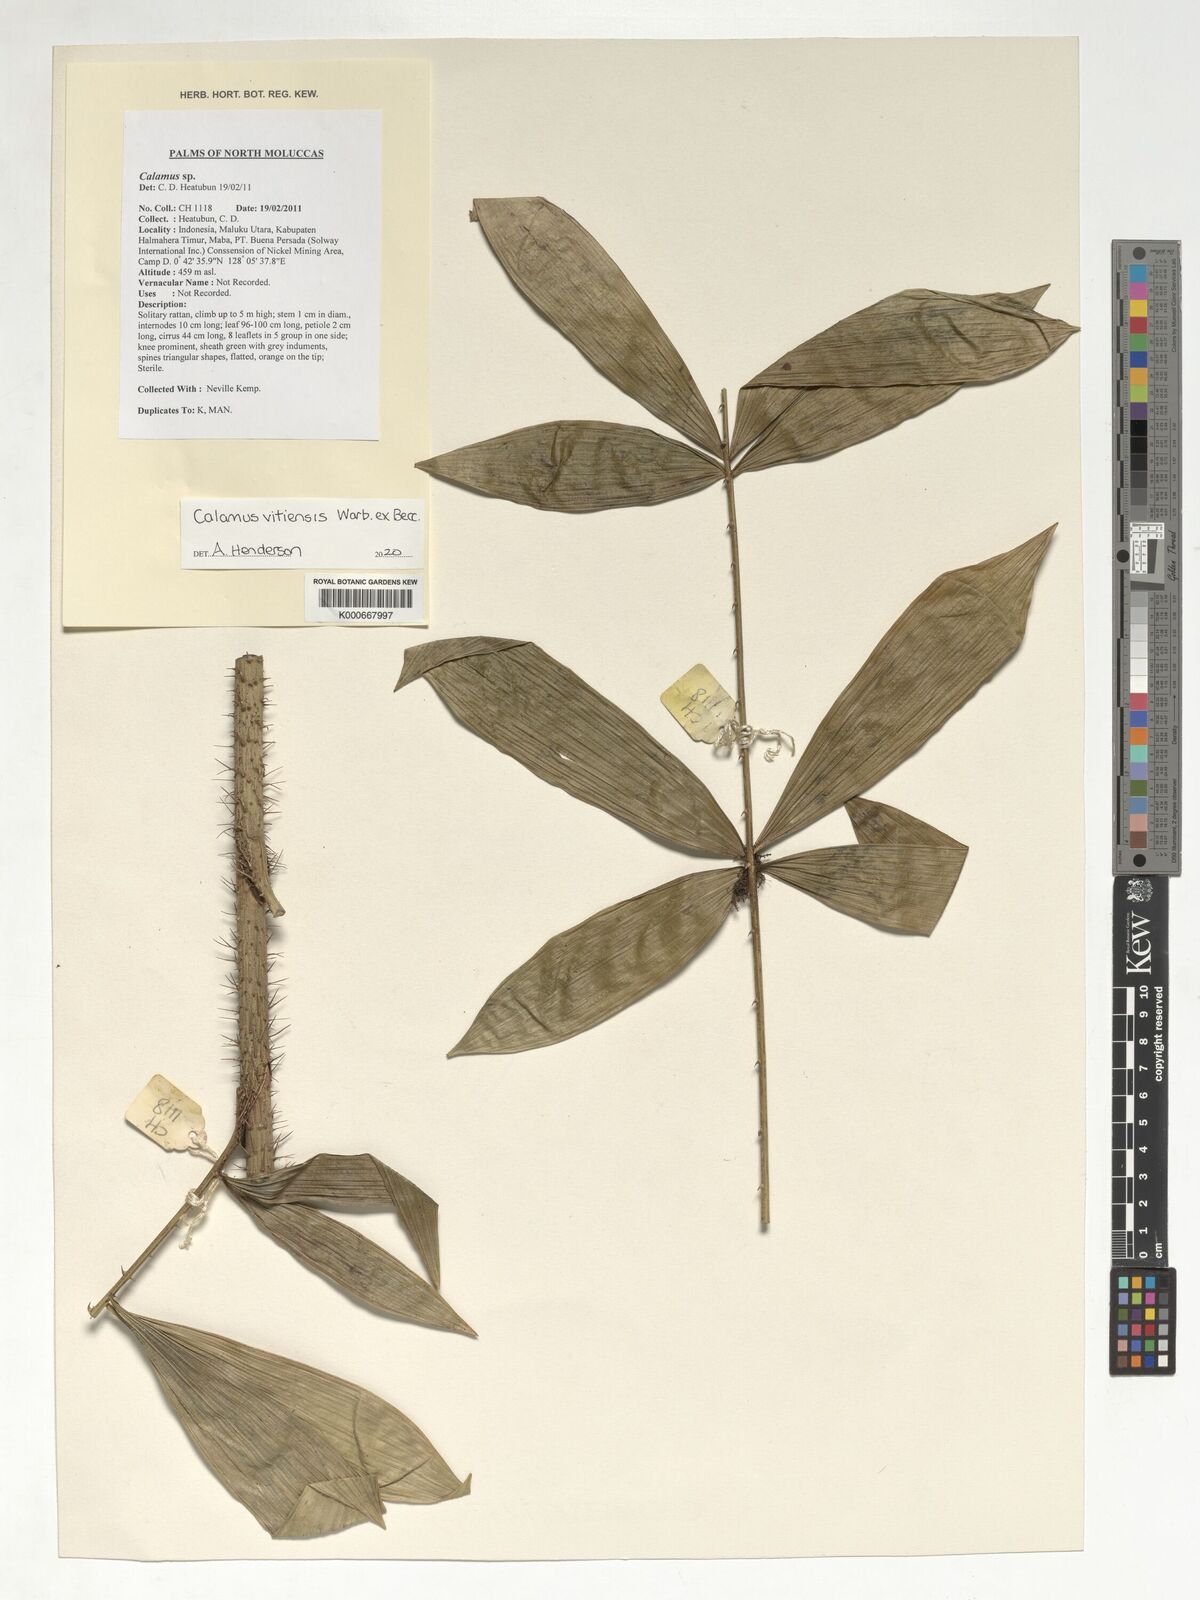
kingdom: Plantae
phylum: Tracheophyta
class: Liliopsida
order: Arecales
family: Arecaceae
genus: Calamus
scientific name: Calamus vitiensis
